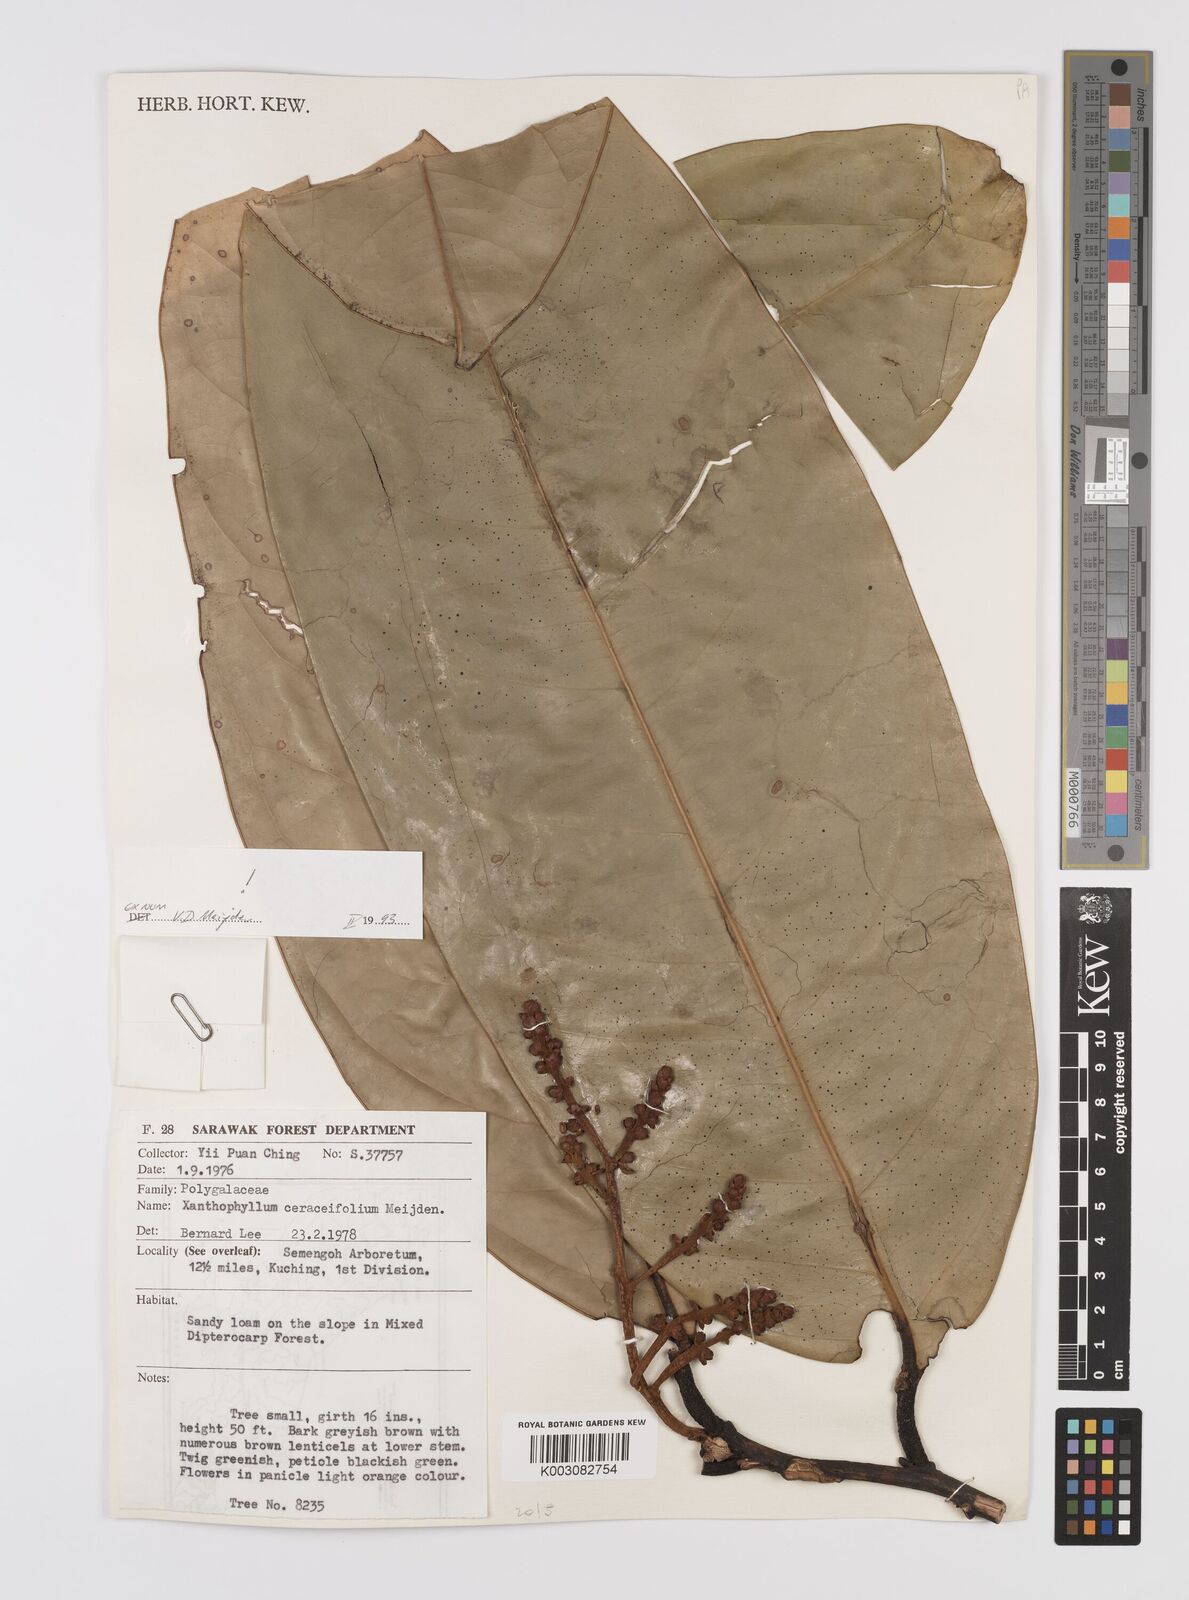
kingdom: Plantae
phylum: Tracheophyta
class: Magnoliopsida
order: Fabales
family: Polygalaceae
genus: Xanthophyllum
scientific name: Xanthophyllum
